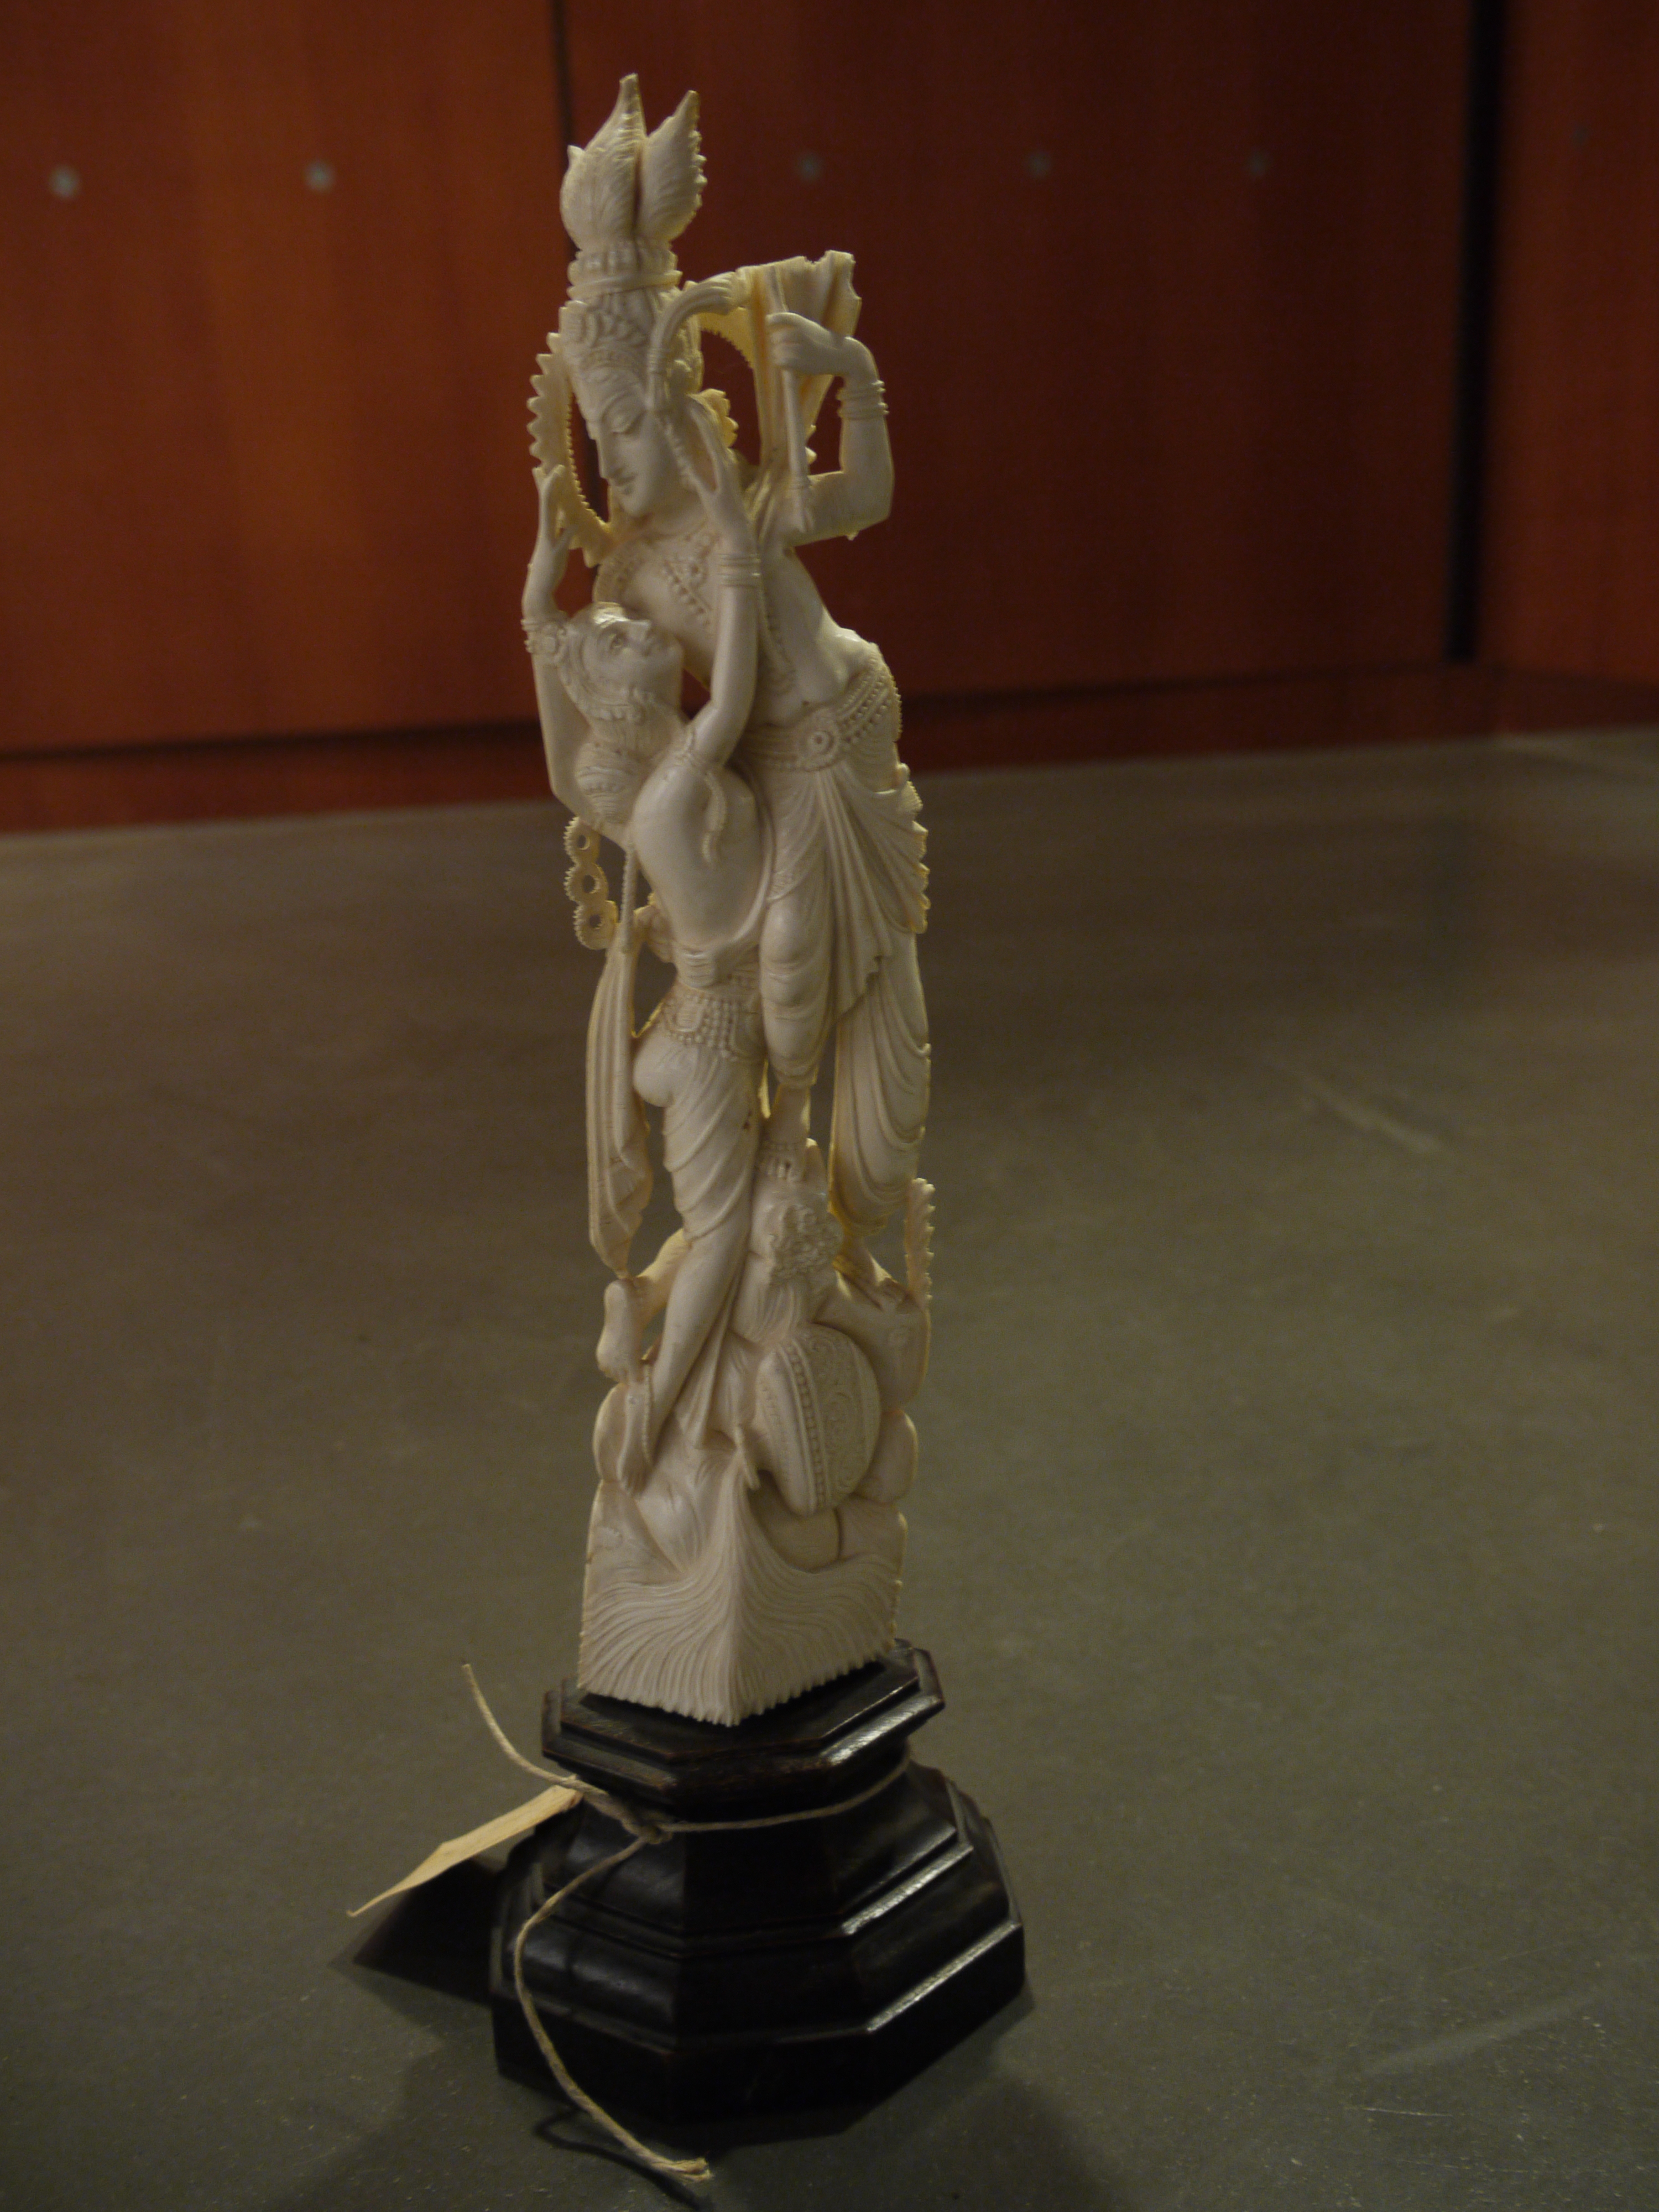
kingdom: Animalia
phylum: Chordata
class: Mammalia
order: Proboscidea
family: Elephantidae
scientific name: Elephantidae
